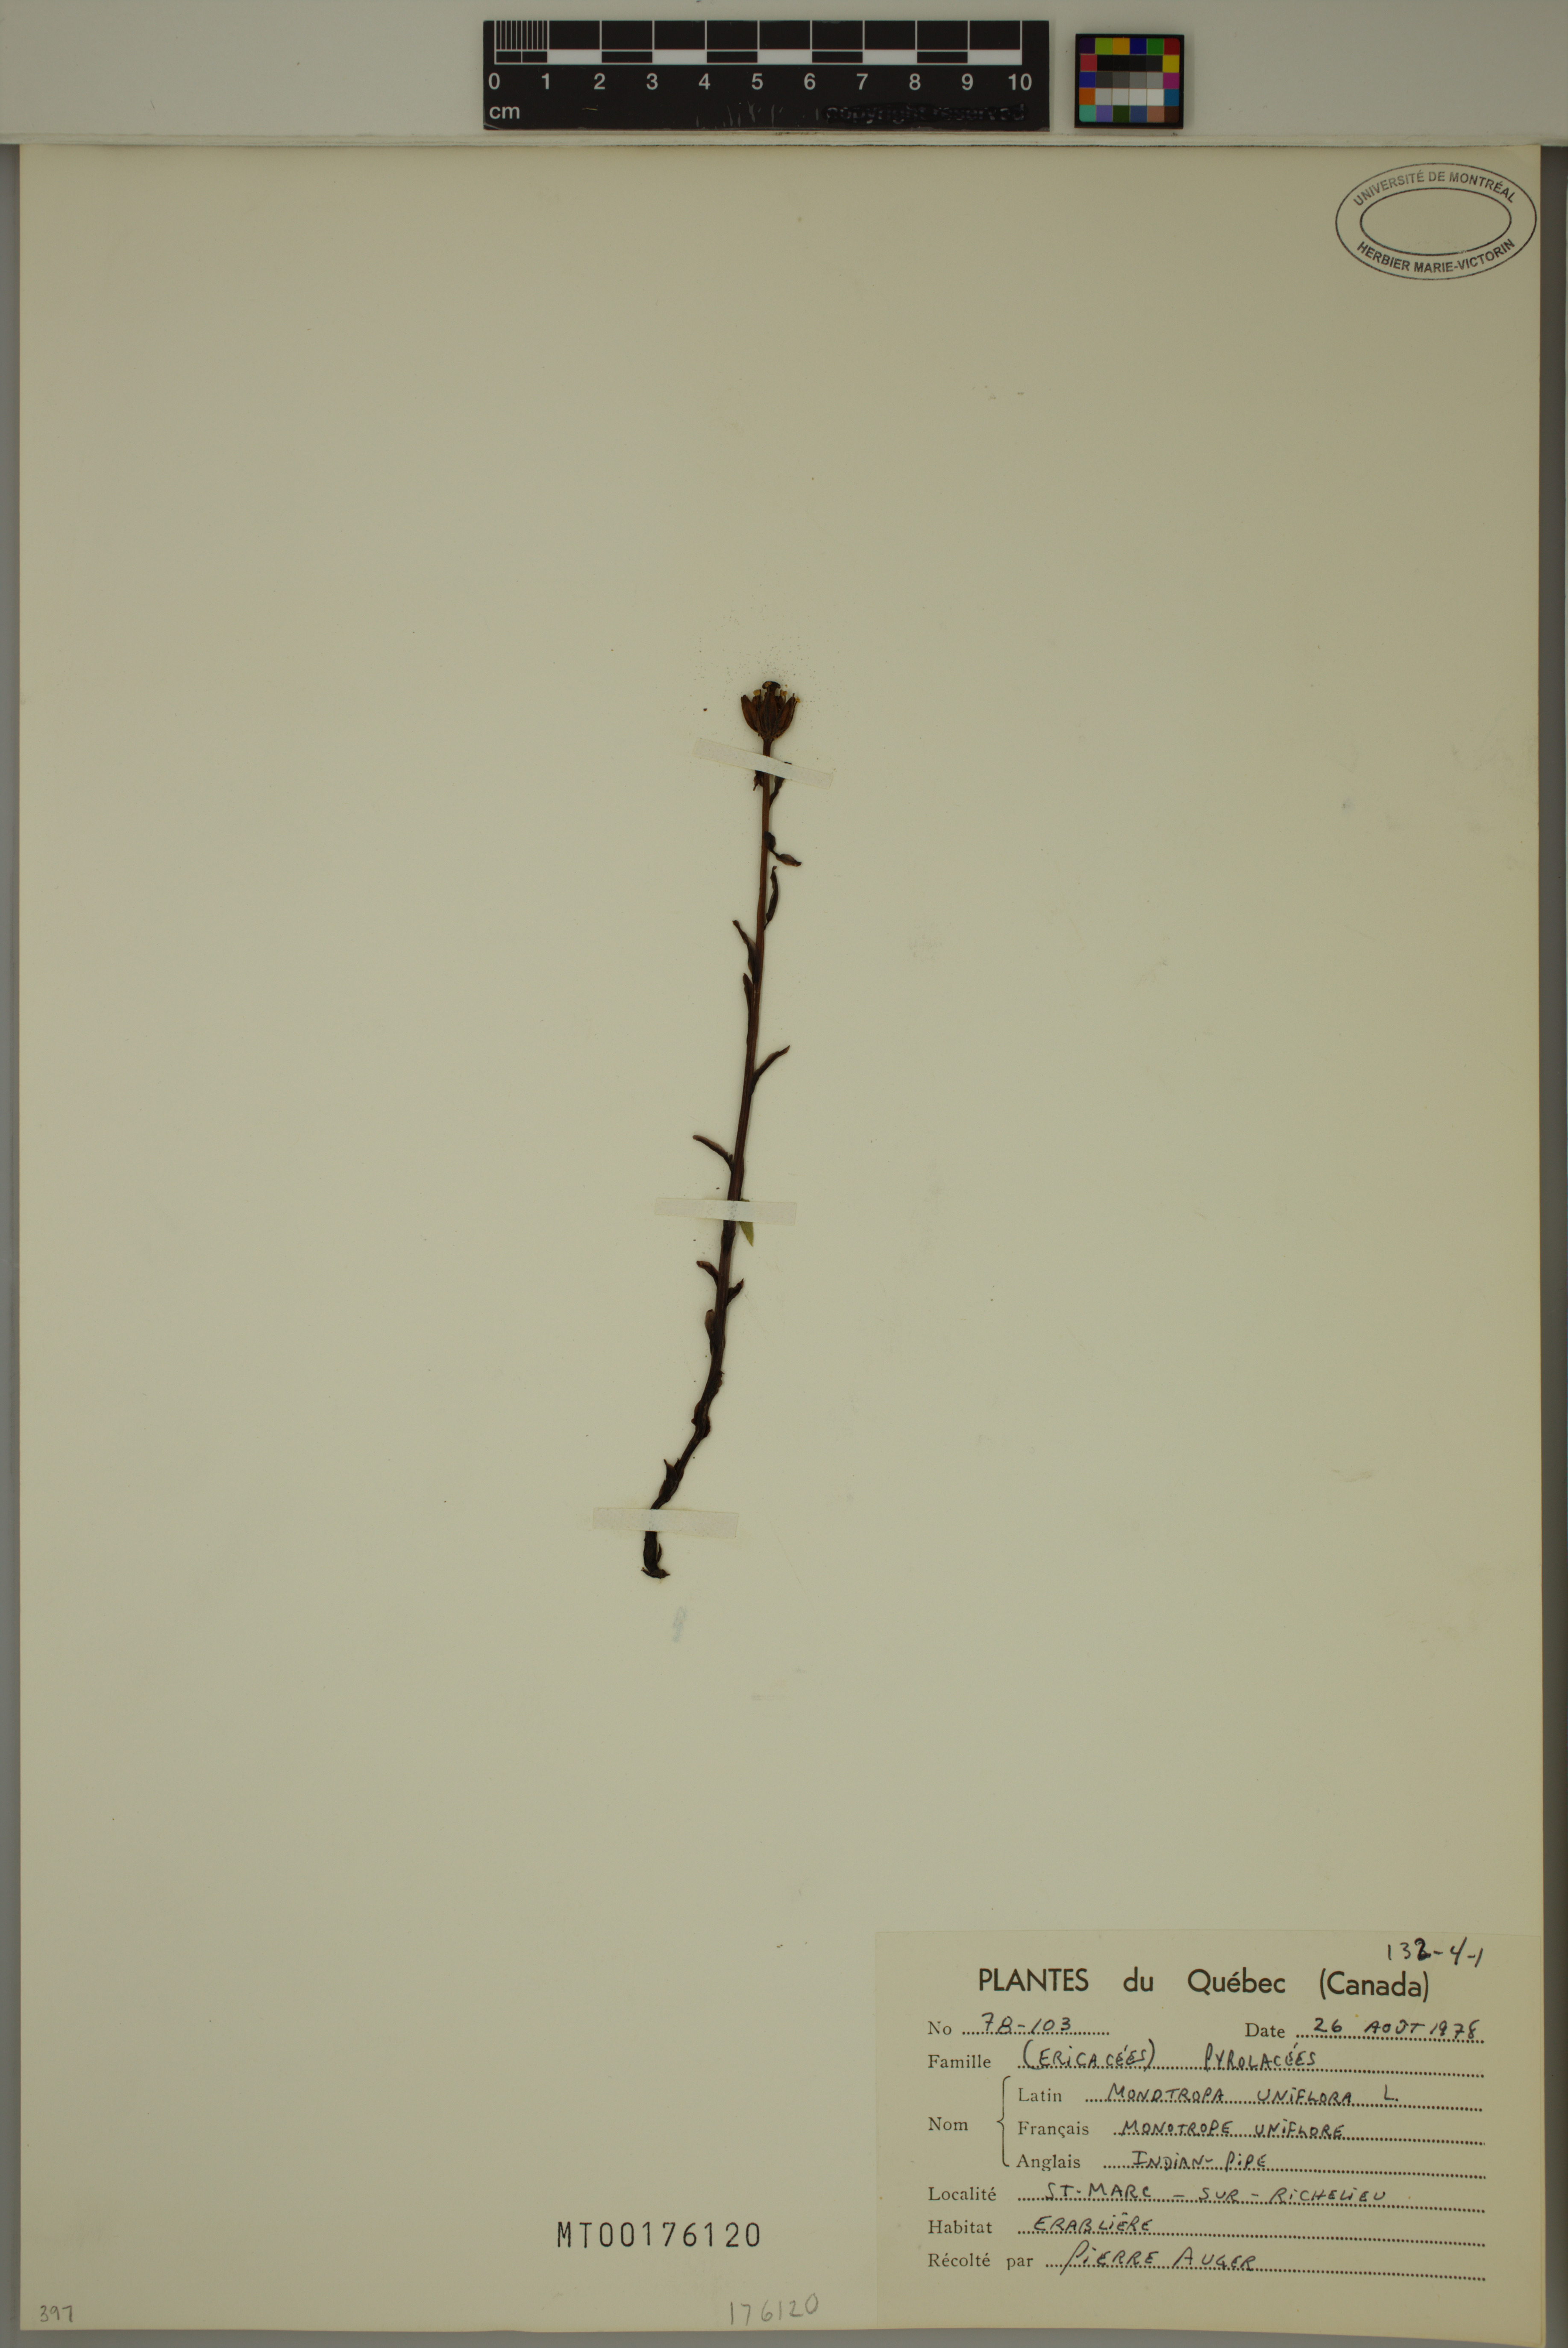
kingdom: Plantae
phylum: Tracheophyta
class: Magnoliopsida
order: Ericales
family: Ericaceae
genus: Monotropa
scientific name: Monotropa uniflora
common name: Convulsion root
